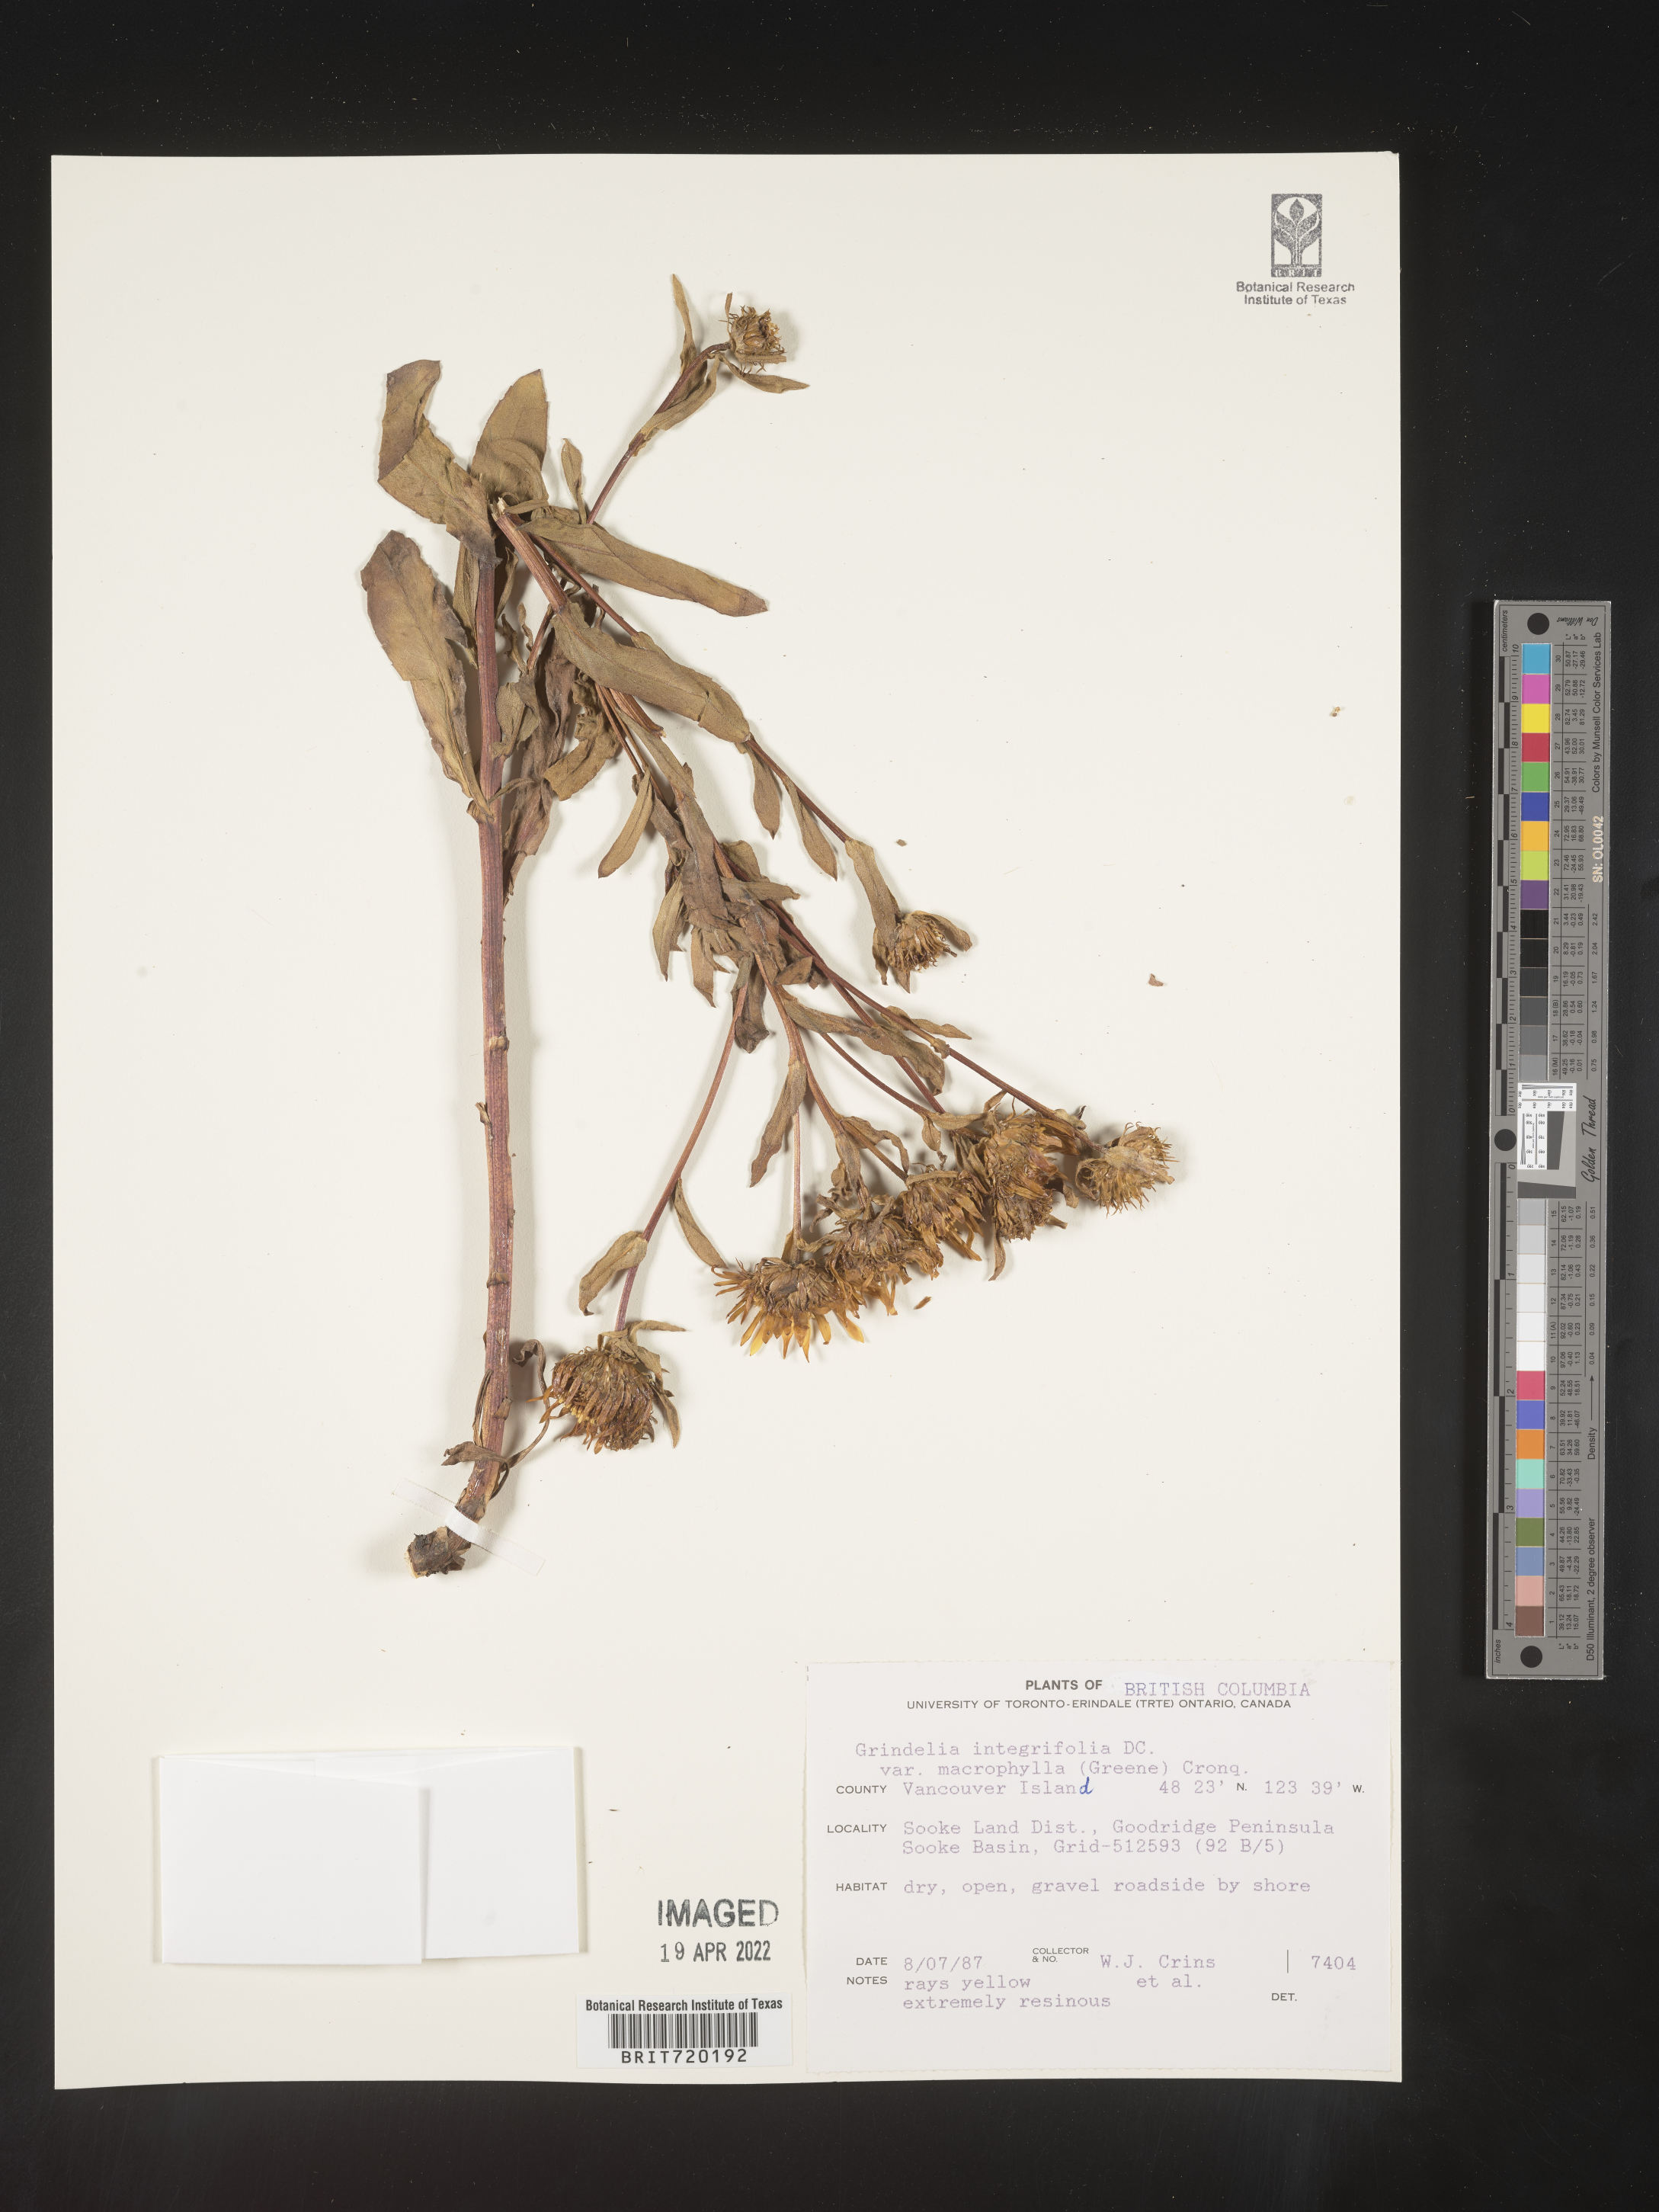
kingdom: Plantae
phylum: Tracheophyta
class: Magnoliopsida
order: Asterales
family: Asteraceae
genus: Grindelia
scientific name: Grindelia integrifolia
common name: Puget sound gumweed
